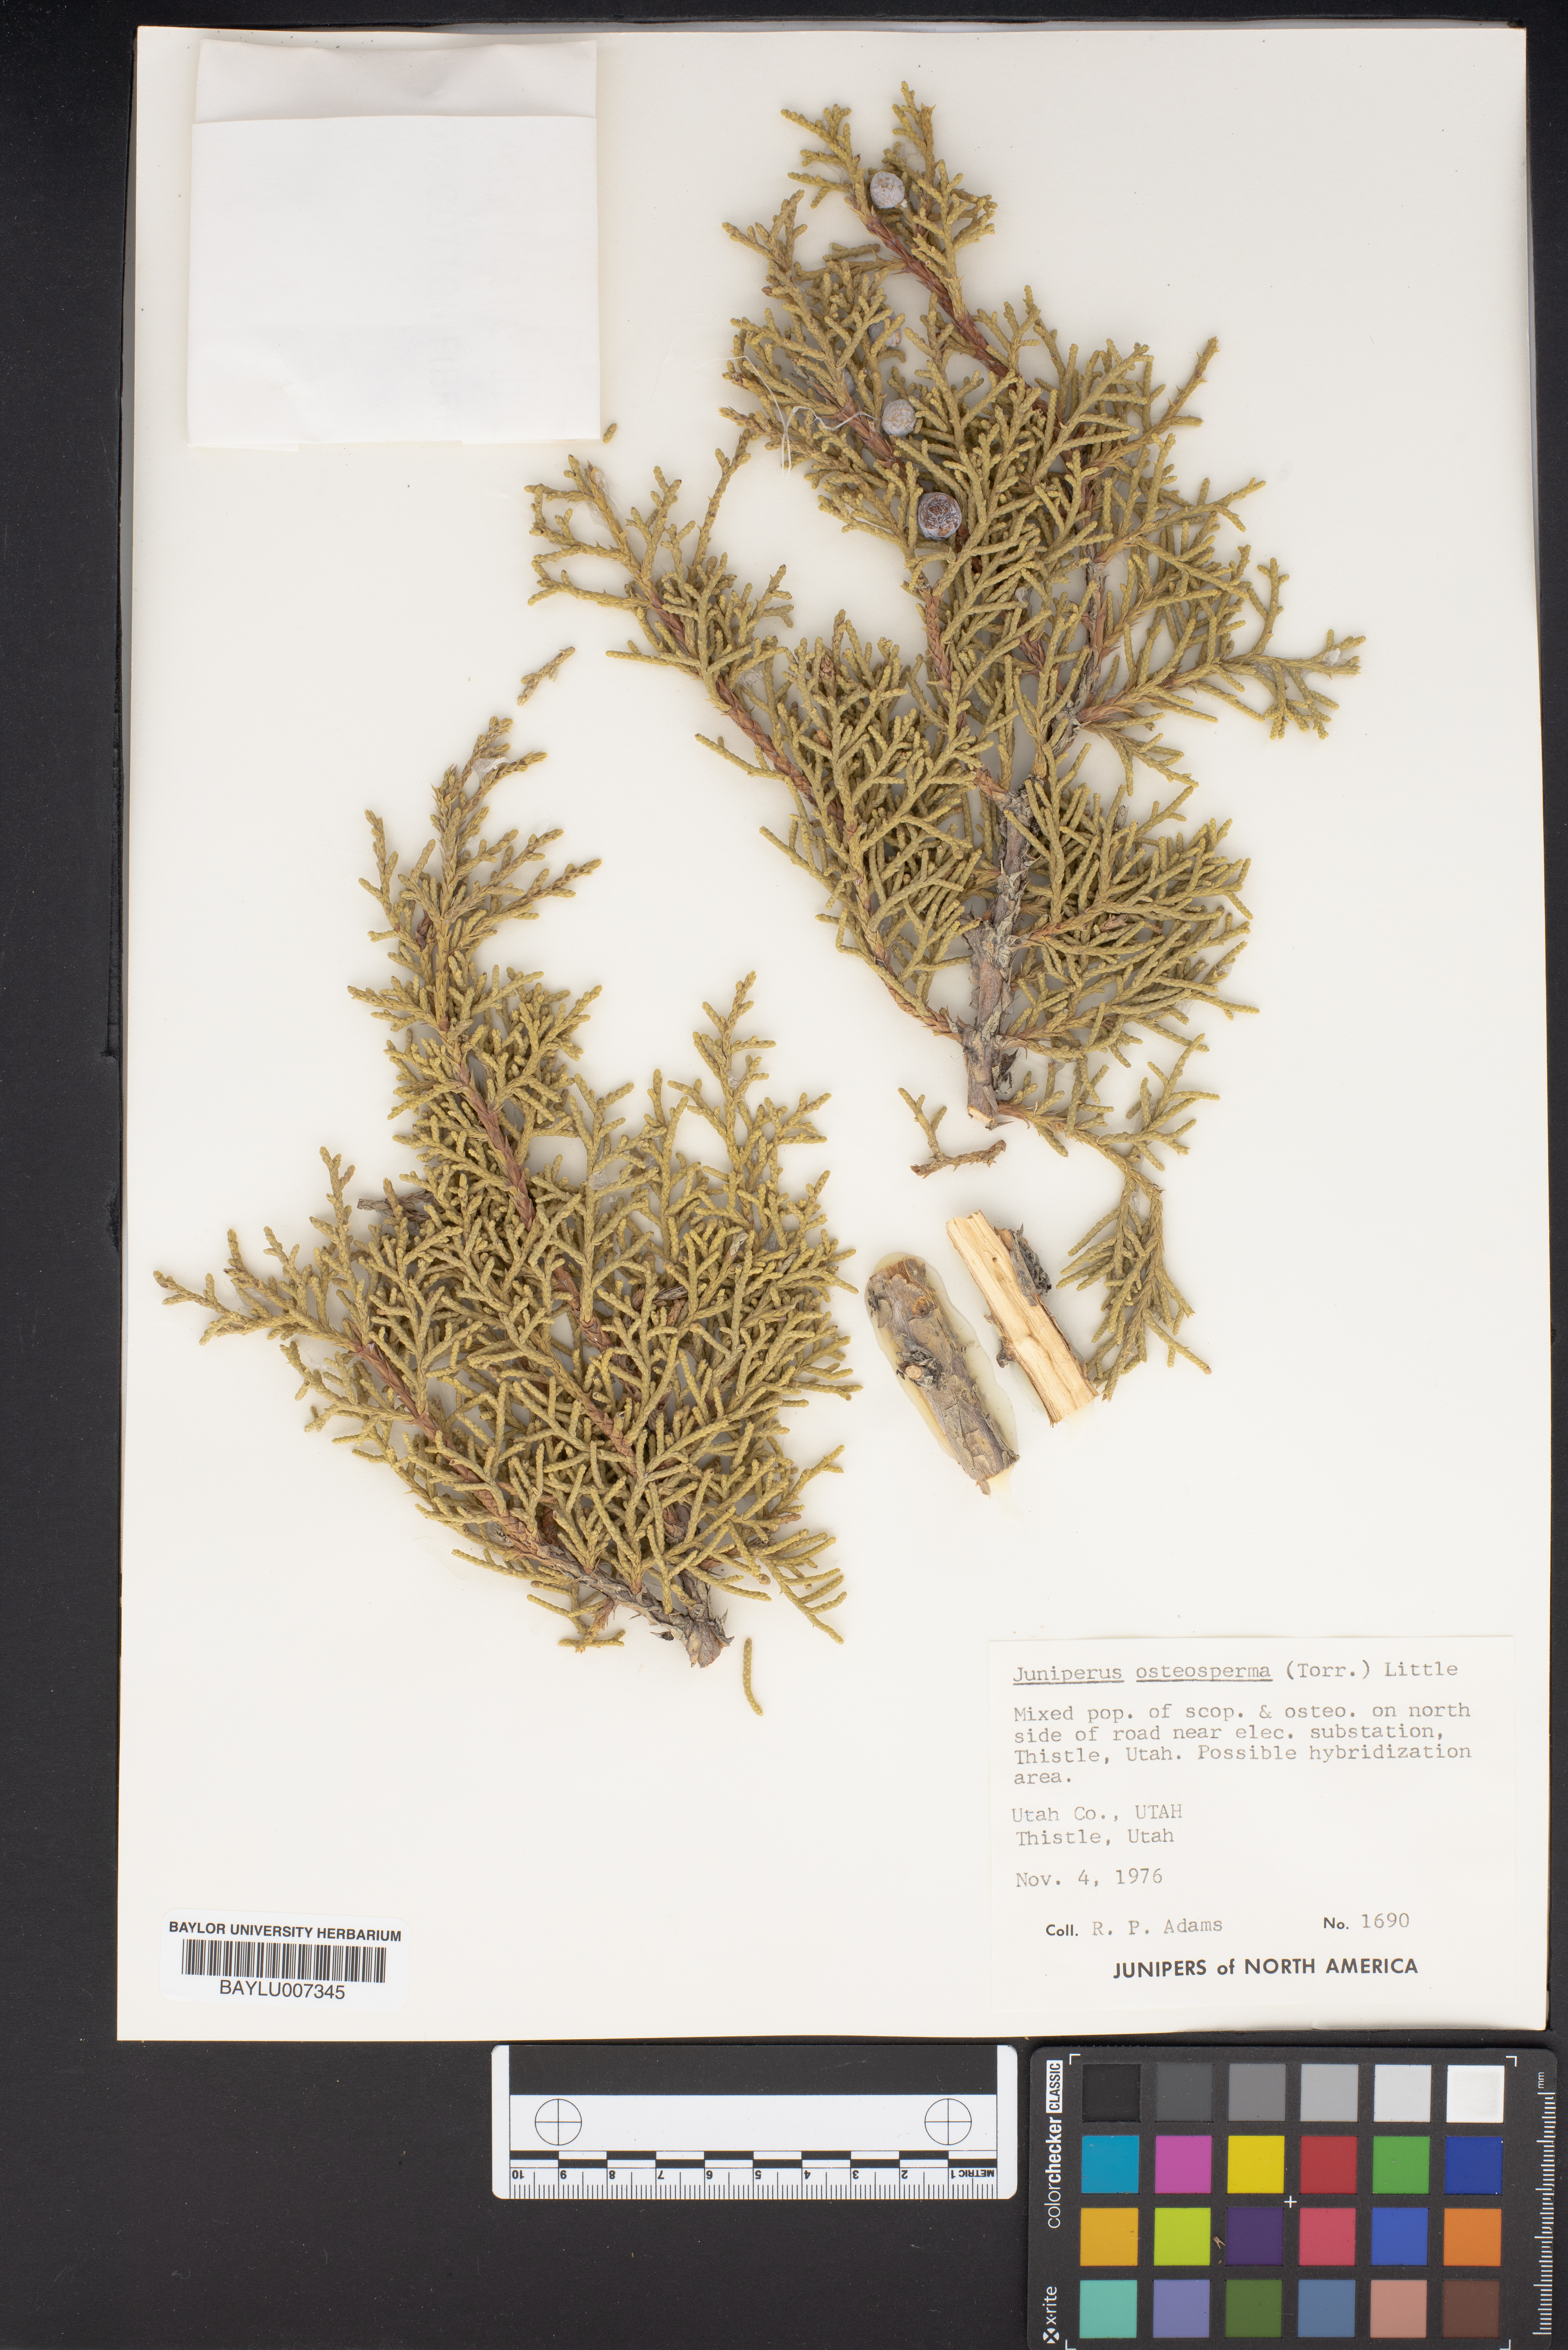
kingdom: Plantae
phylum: Tracheophyta
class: Pinopsida
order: Pinales
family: Cupressaceae
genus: Juniperus
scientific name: Juniperus osteosperma
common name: Utah juniper
